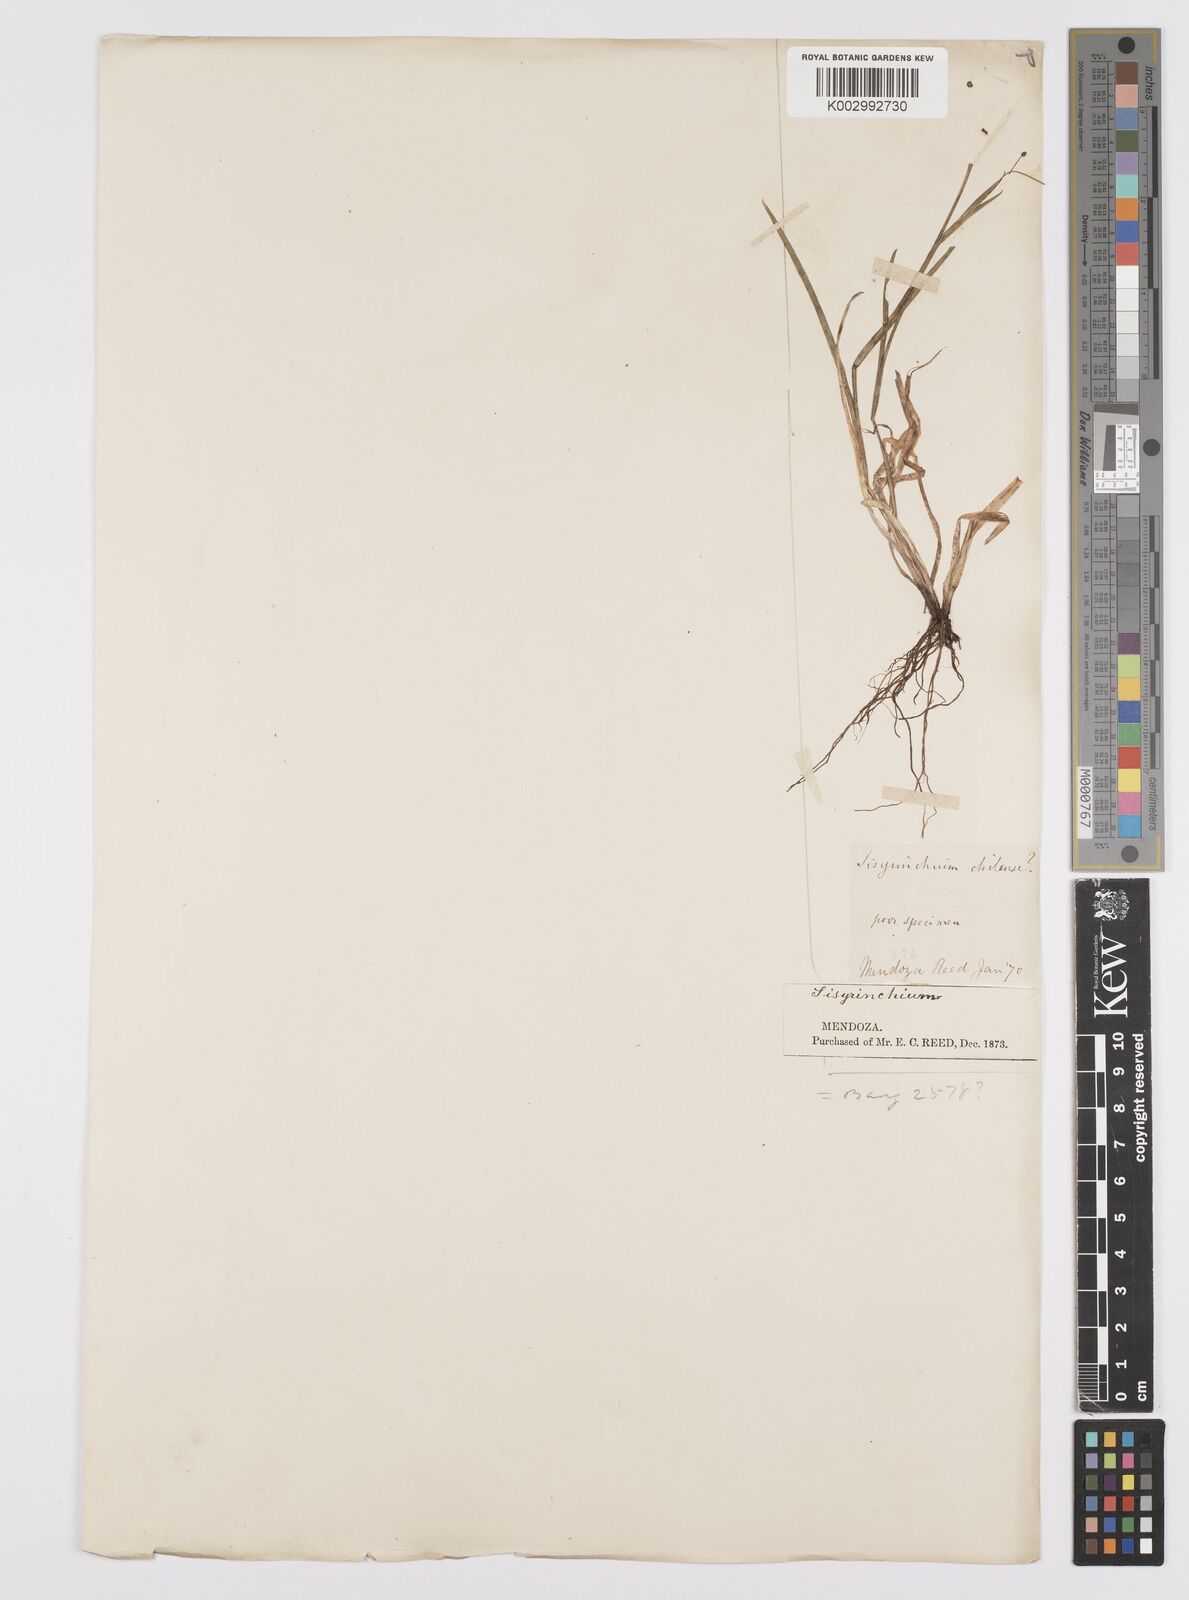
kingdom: Plantae
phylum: Tracheophyta
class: Liliopsida
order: Asparagales
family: Iridaceae
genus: Sisyrinchium
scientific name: Sisyrinchium chilense
